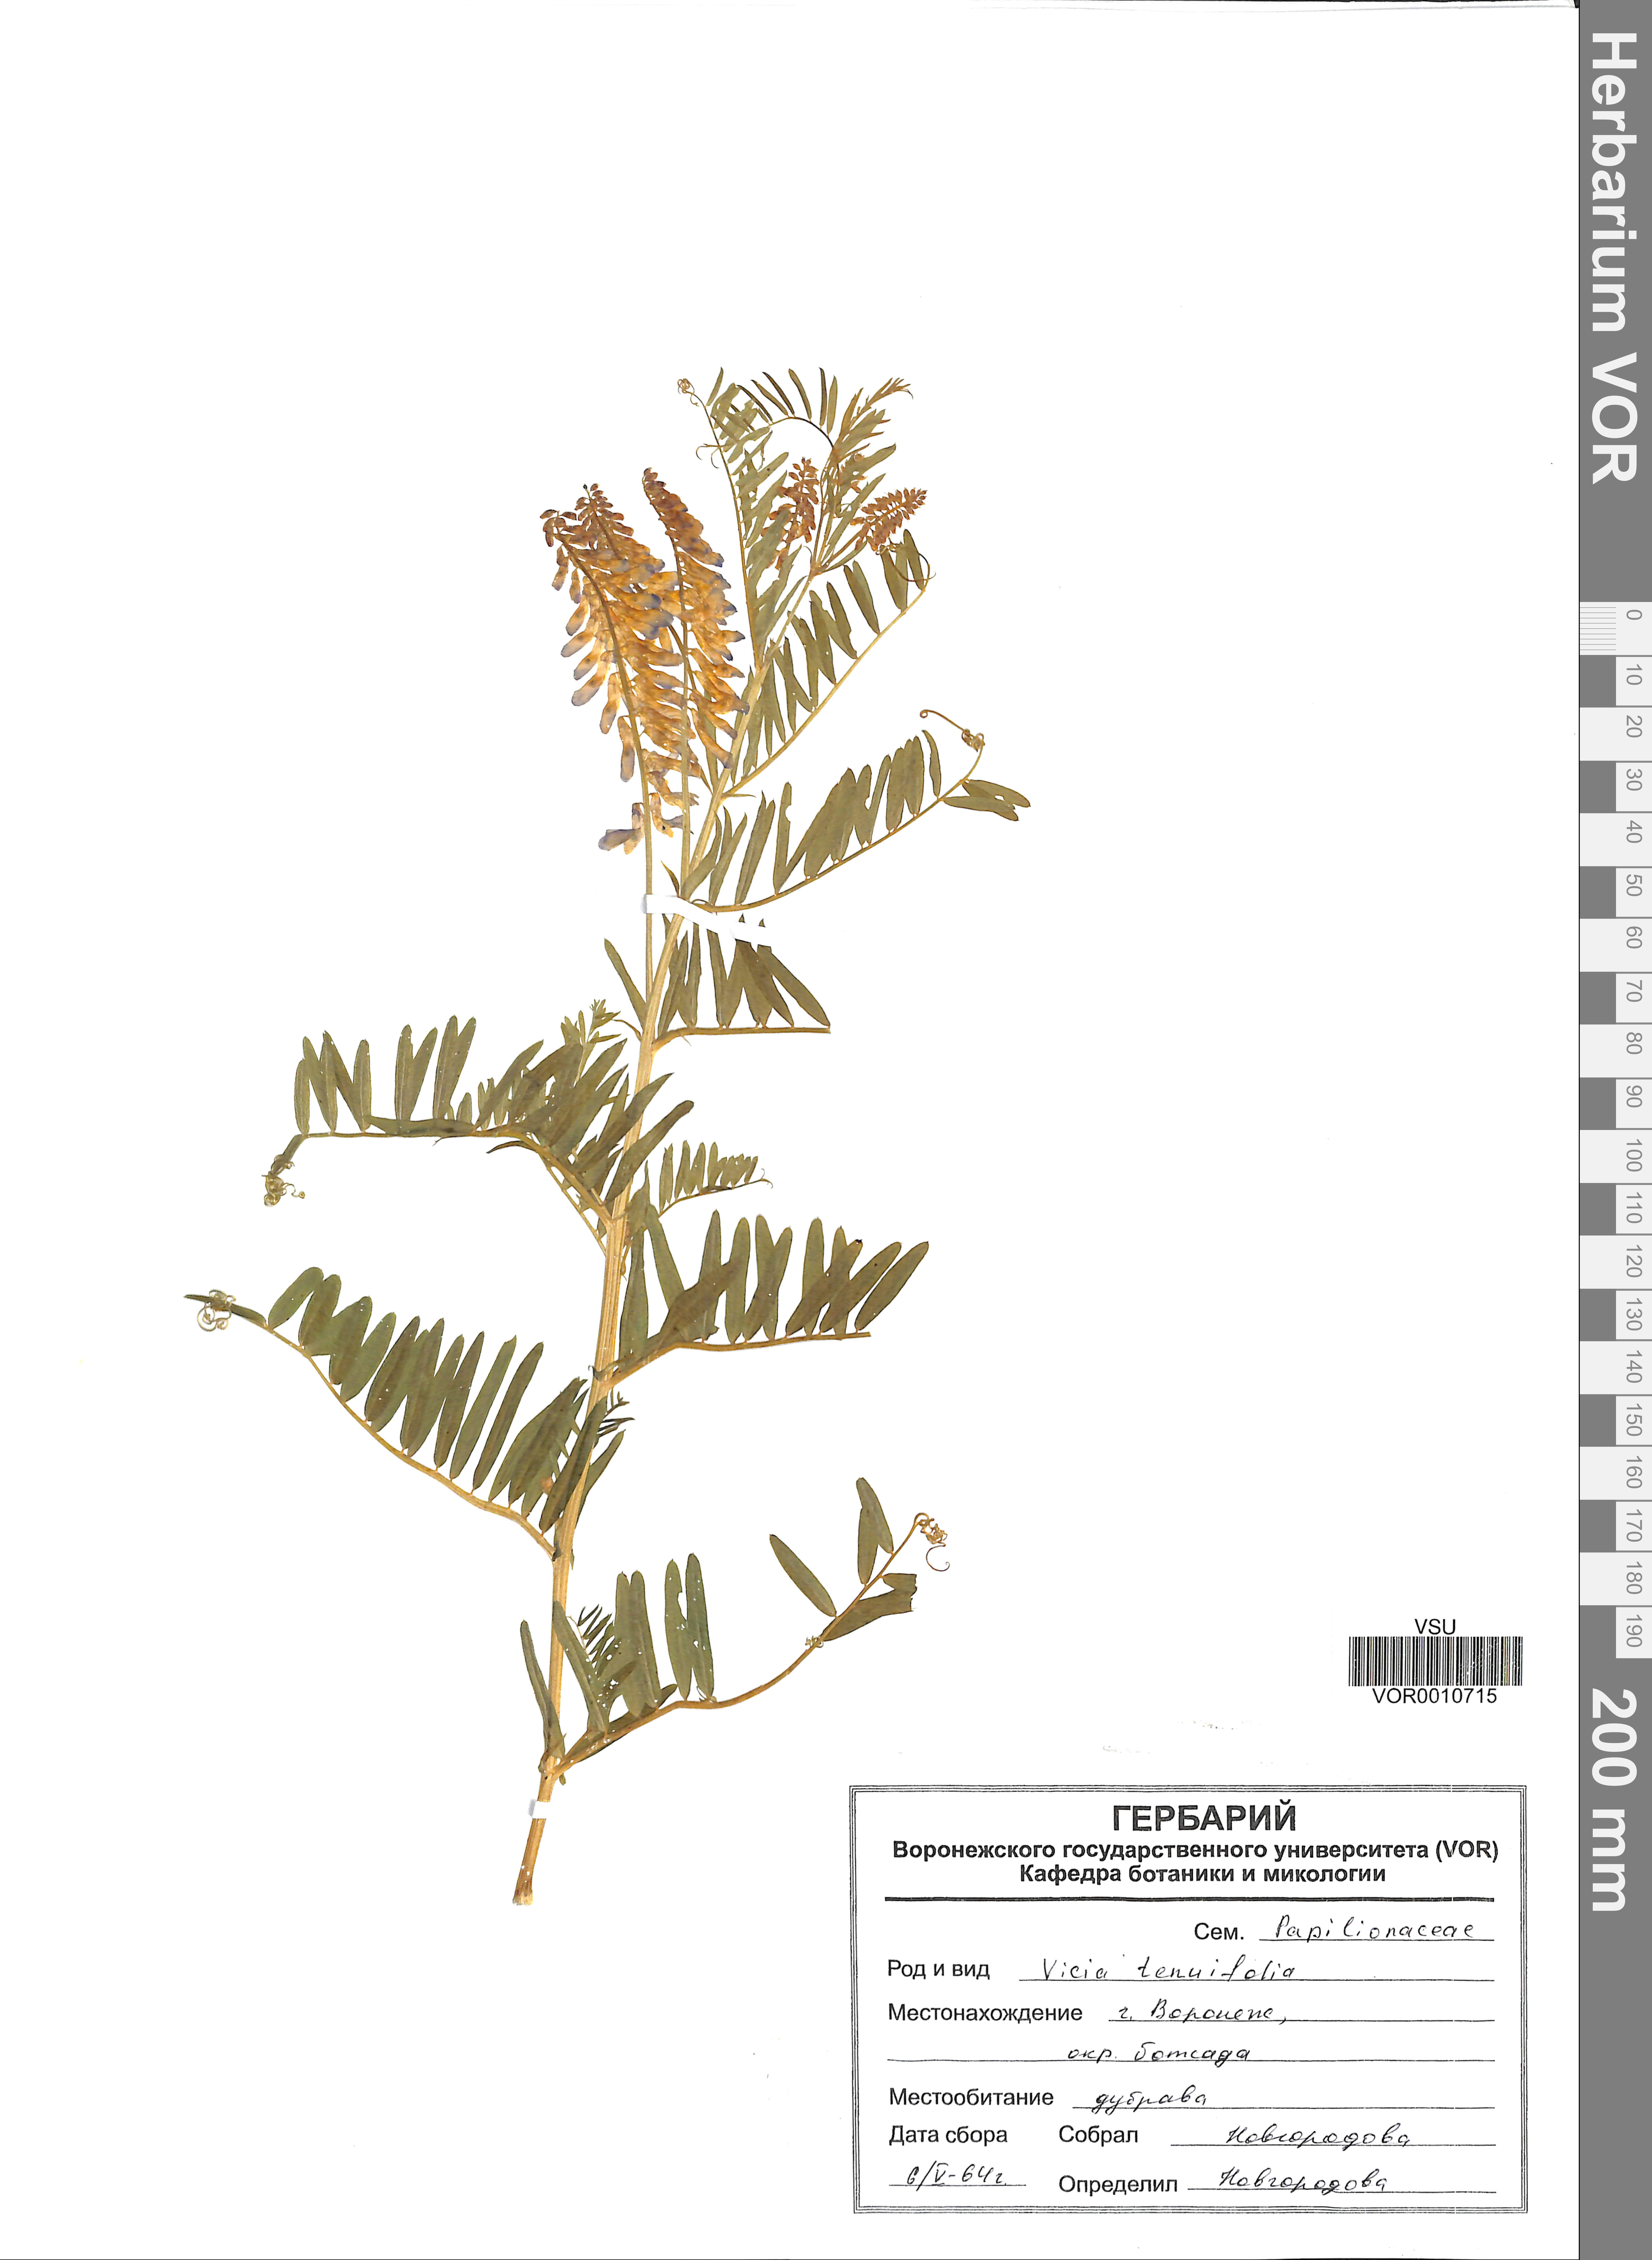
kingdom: Plantae
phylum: Tracheophyta
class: Magnoliopsida
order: Fabales
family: Fabaceae
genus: Vicia
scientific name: Vicia tenuifolia
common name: Fine-leaved vetch
